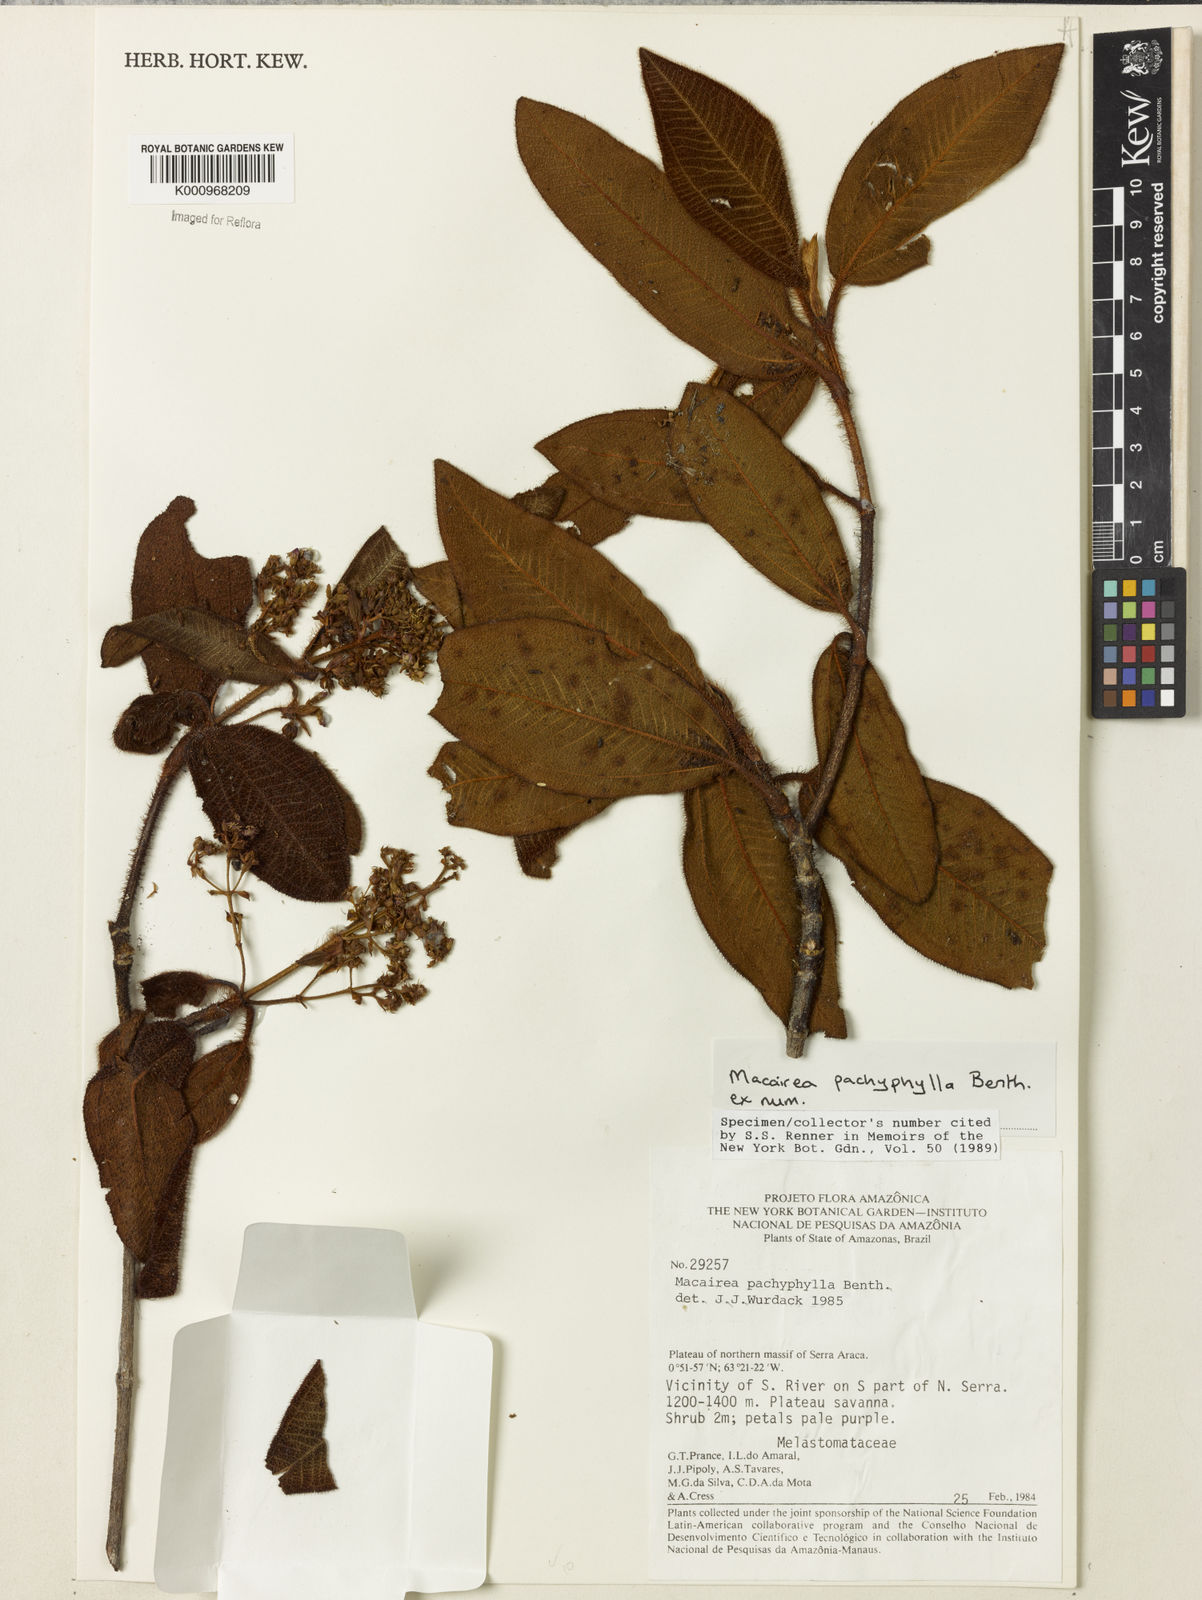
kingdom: Plantae
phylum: Tracheophyta
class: Magnoliopsida
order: Myrtales
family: Melastomataceae
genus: Macairea
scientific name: Macairea pachyphylla
